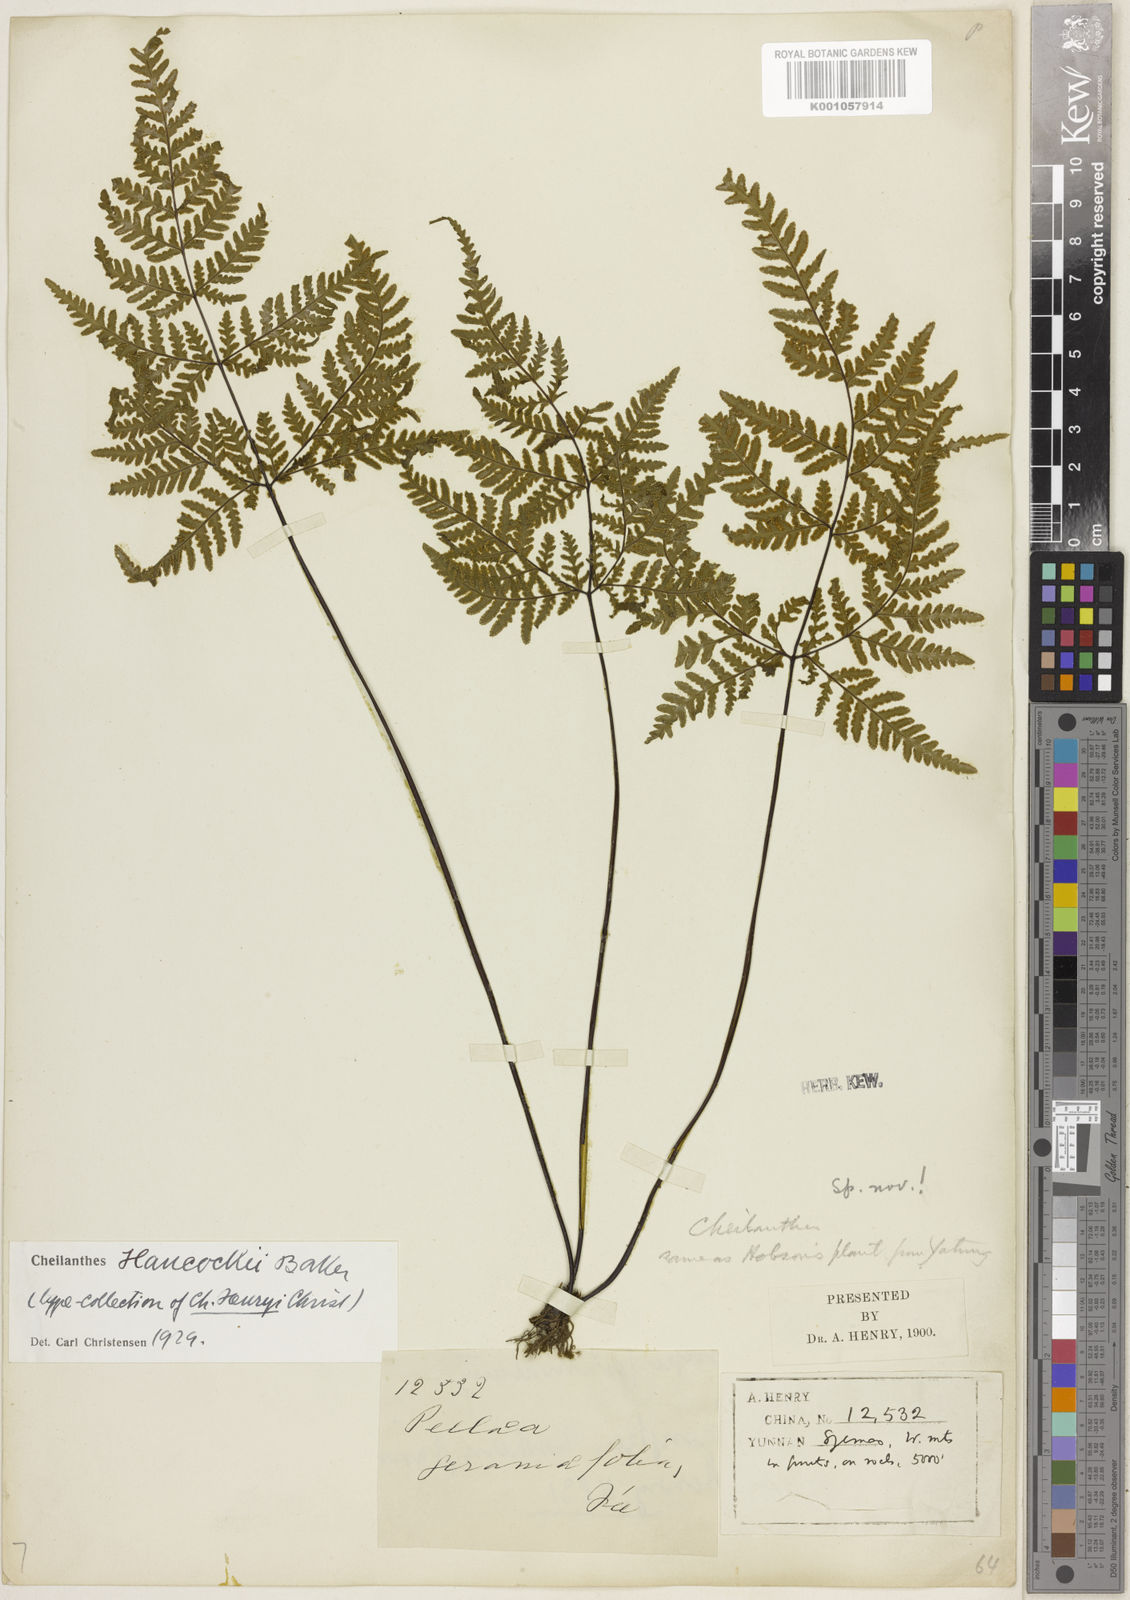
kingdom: Plantae
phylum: Tracheophyta
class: Polypodiopsida
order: Polypodiales
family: Pteridaceae
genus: Oeosporangium
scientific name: Oeosporangium hancockii
